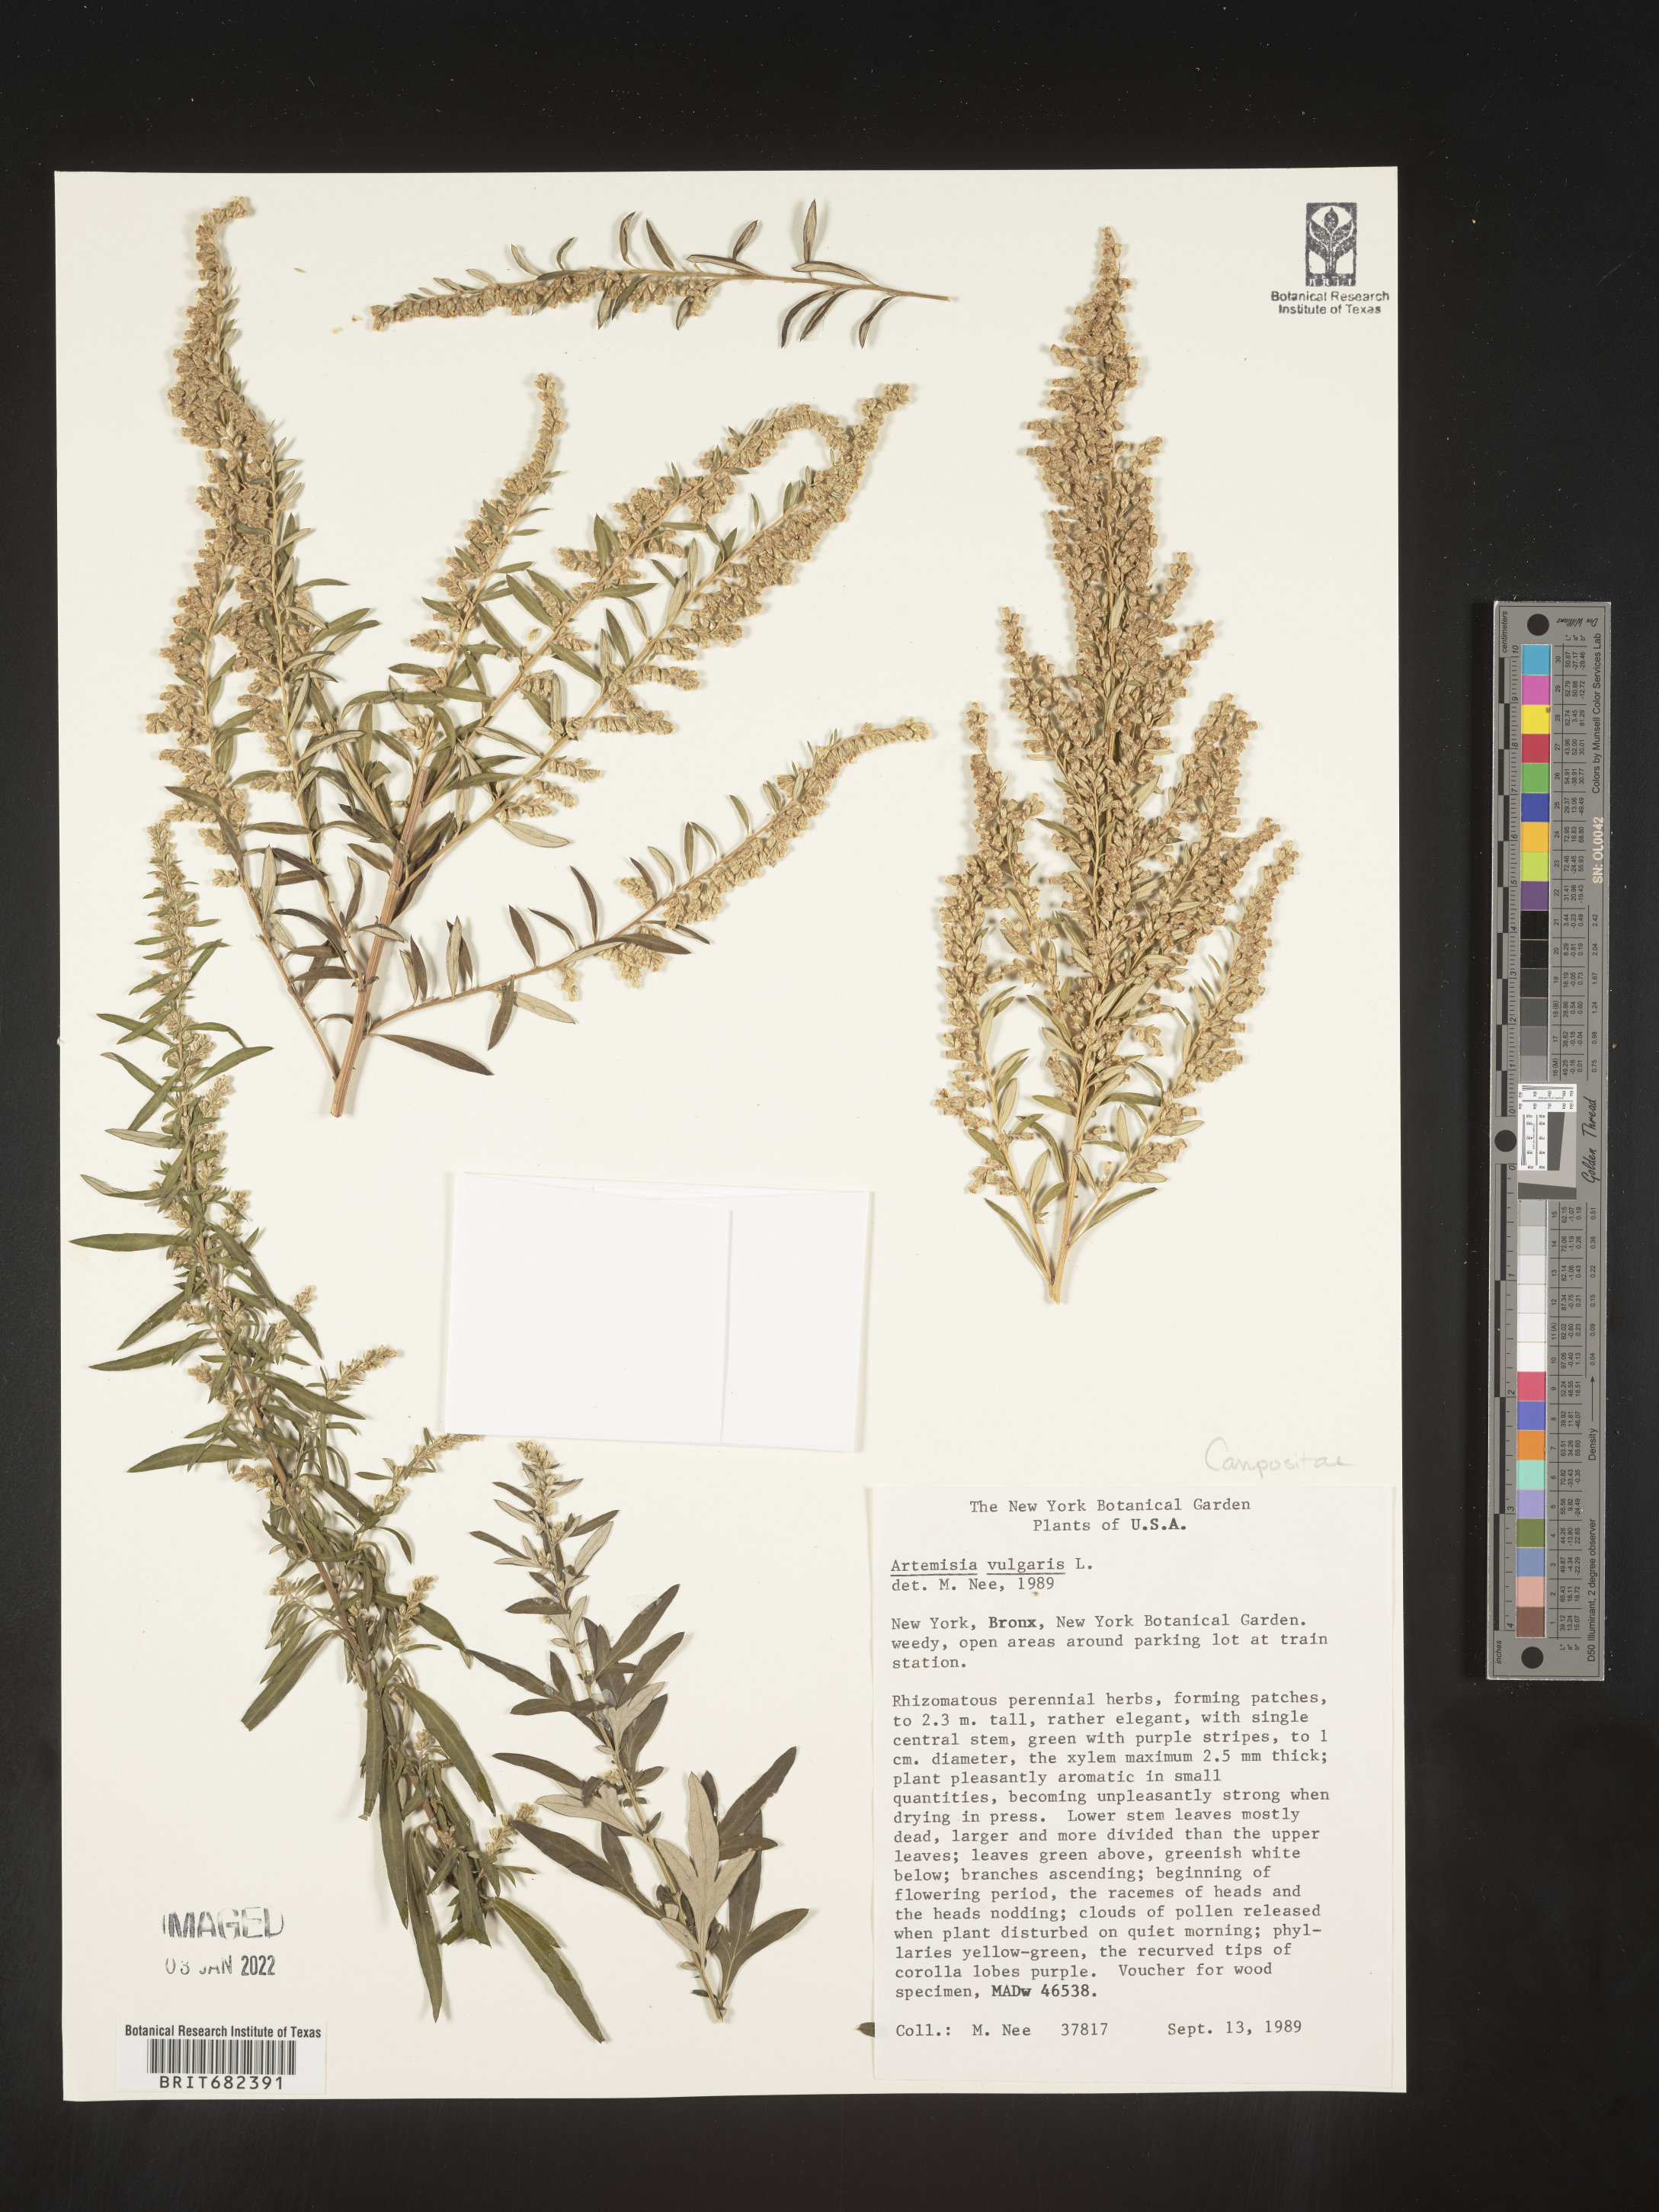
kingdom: Plantae
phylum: Tracheophyta
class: Magnoliopsida
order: Asterales
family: Asteraceae
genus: Artemisia
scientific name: Artemisia vulgaris
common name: Mugwort
